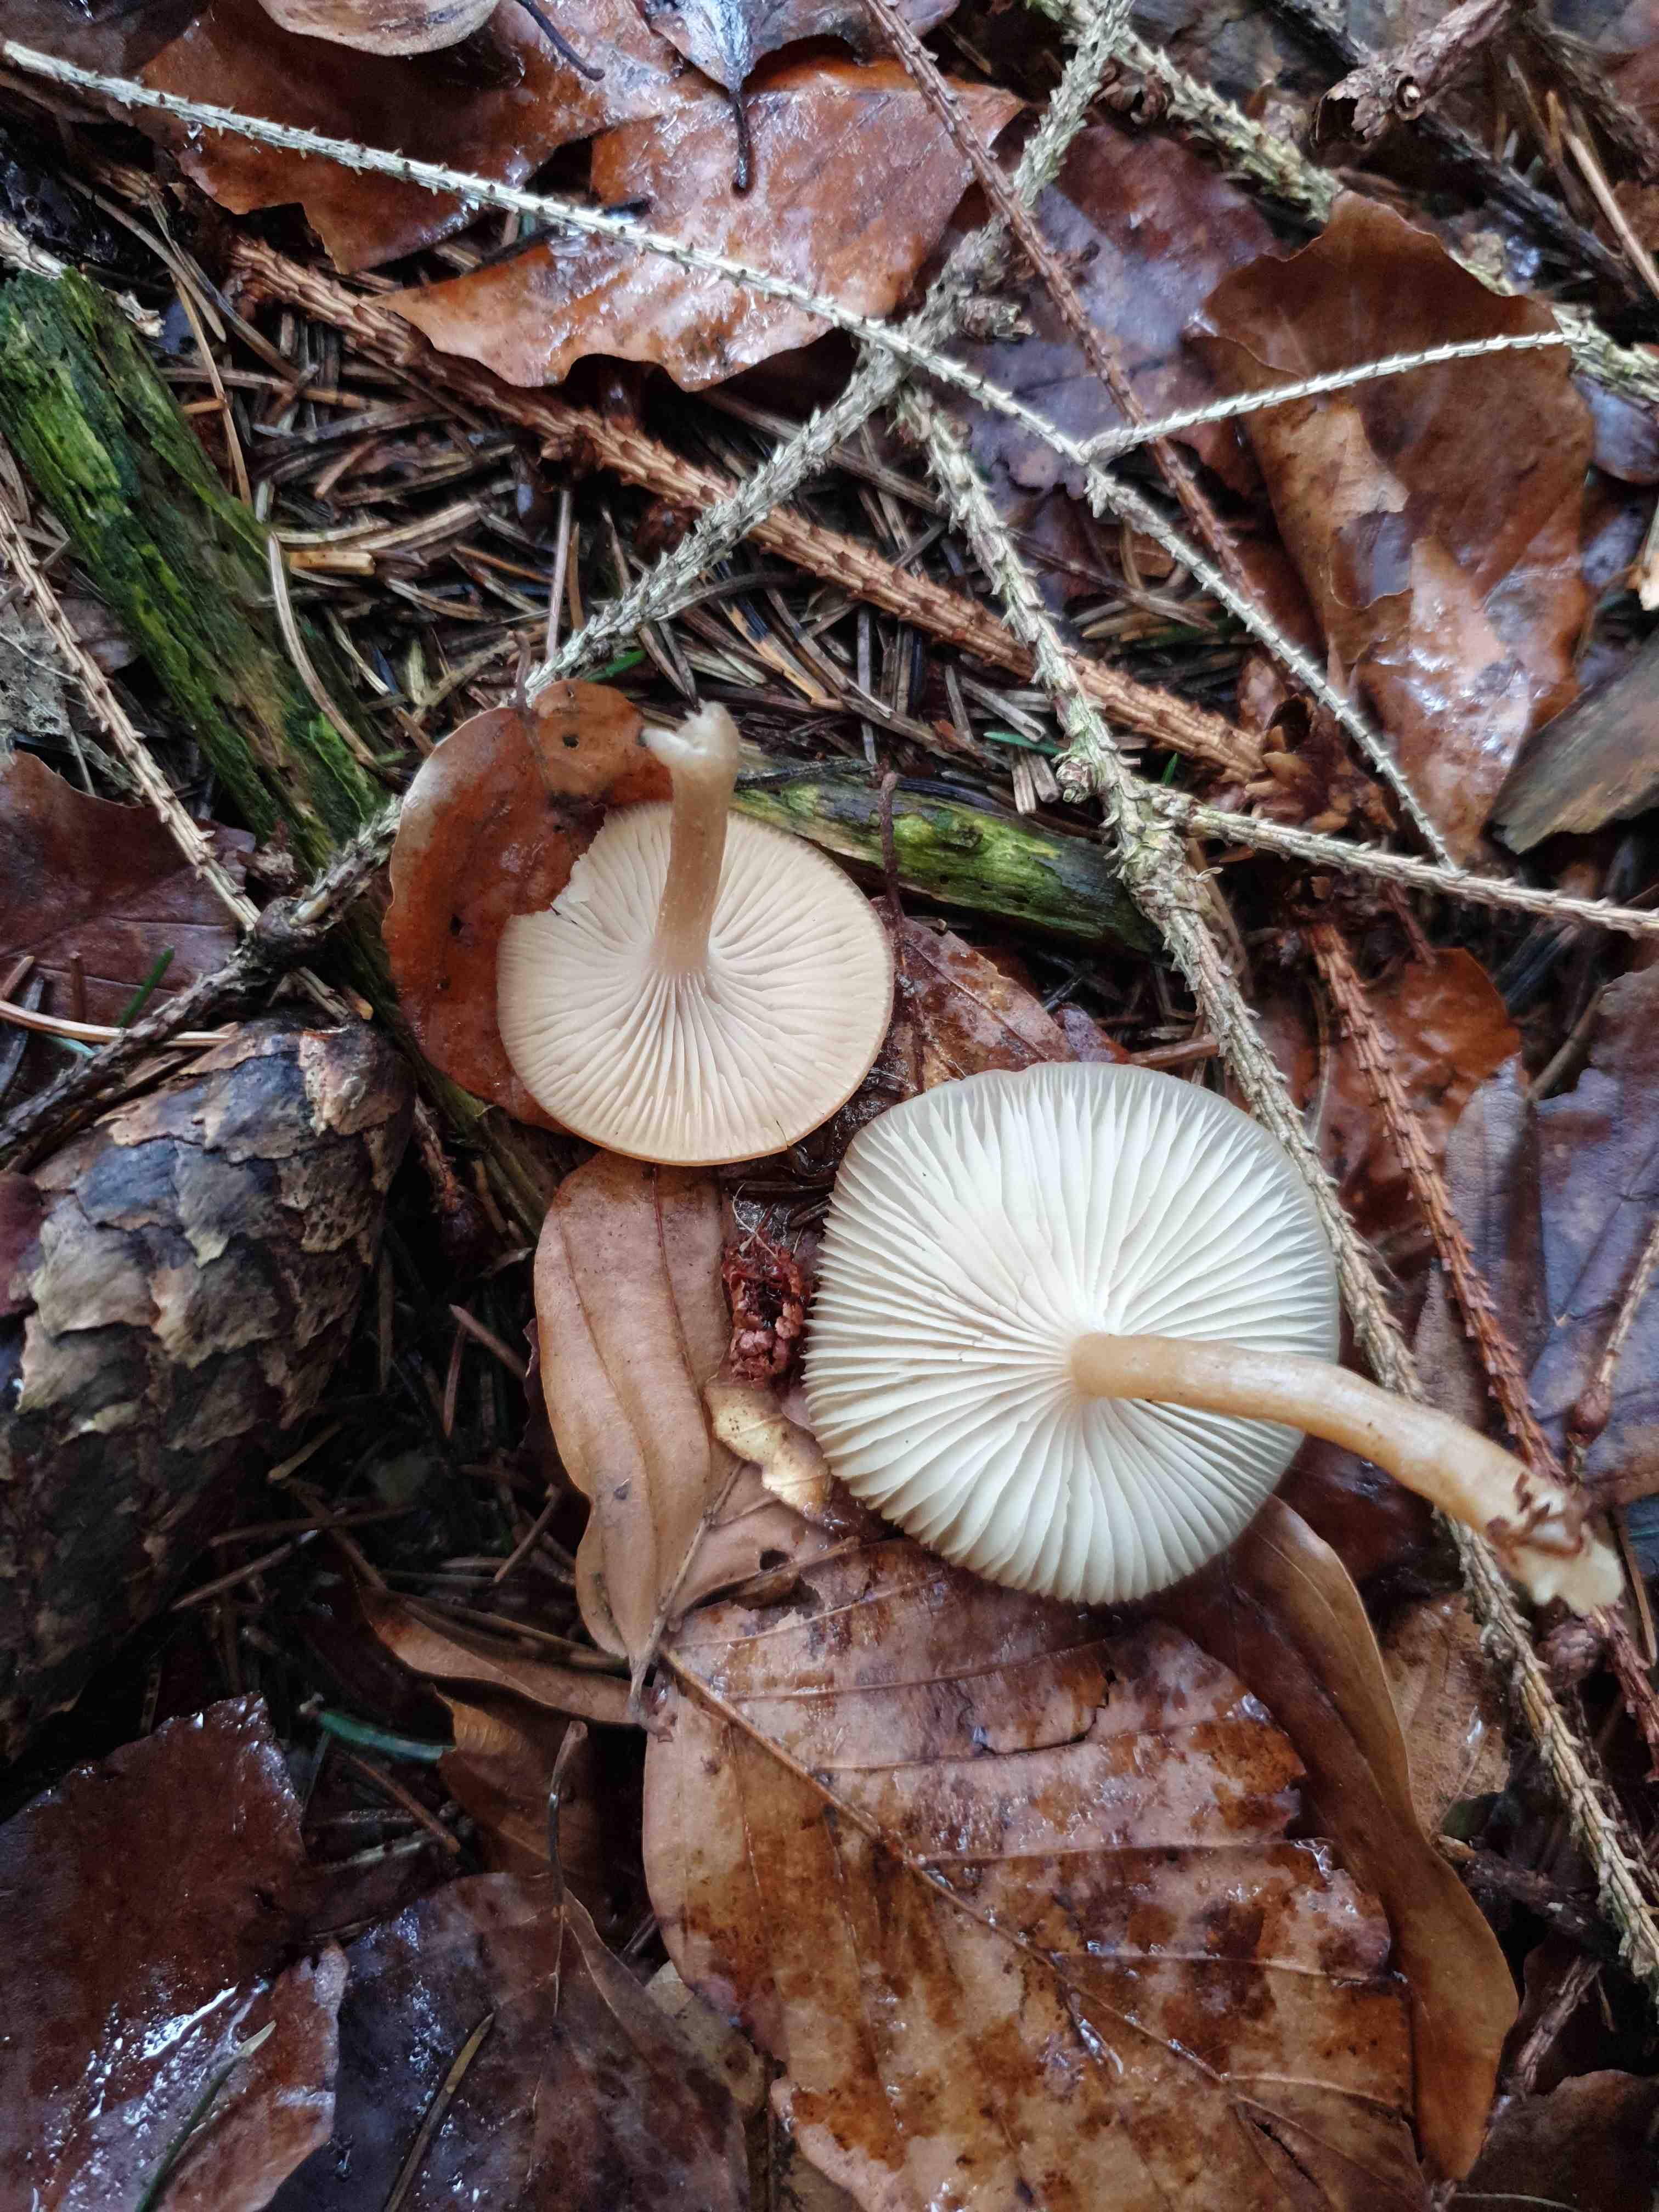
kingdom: Fungi
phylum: Basidiomycota
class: Agaricomycetes
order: Agaricales
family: Tricholomataceae
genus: Clitocybe
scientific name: Clitocybe fragrans
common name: vellugtende tragthat
